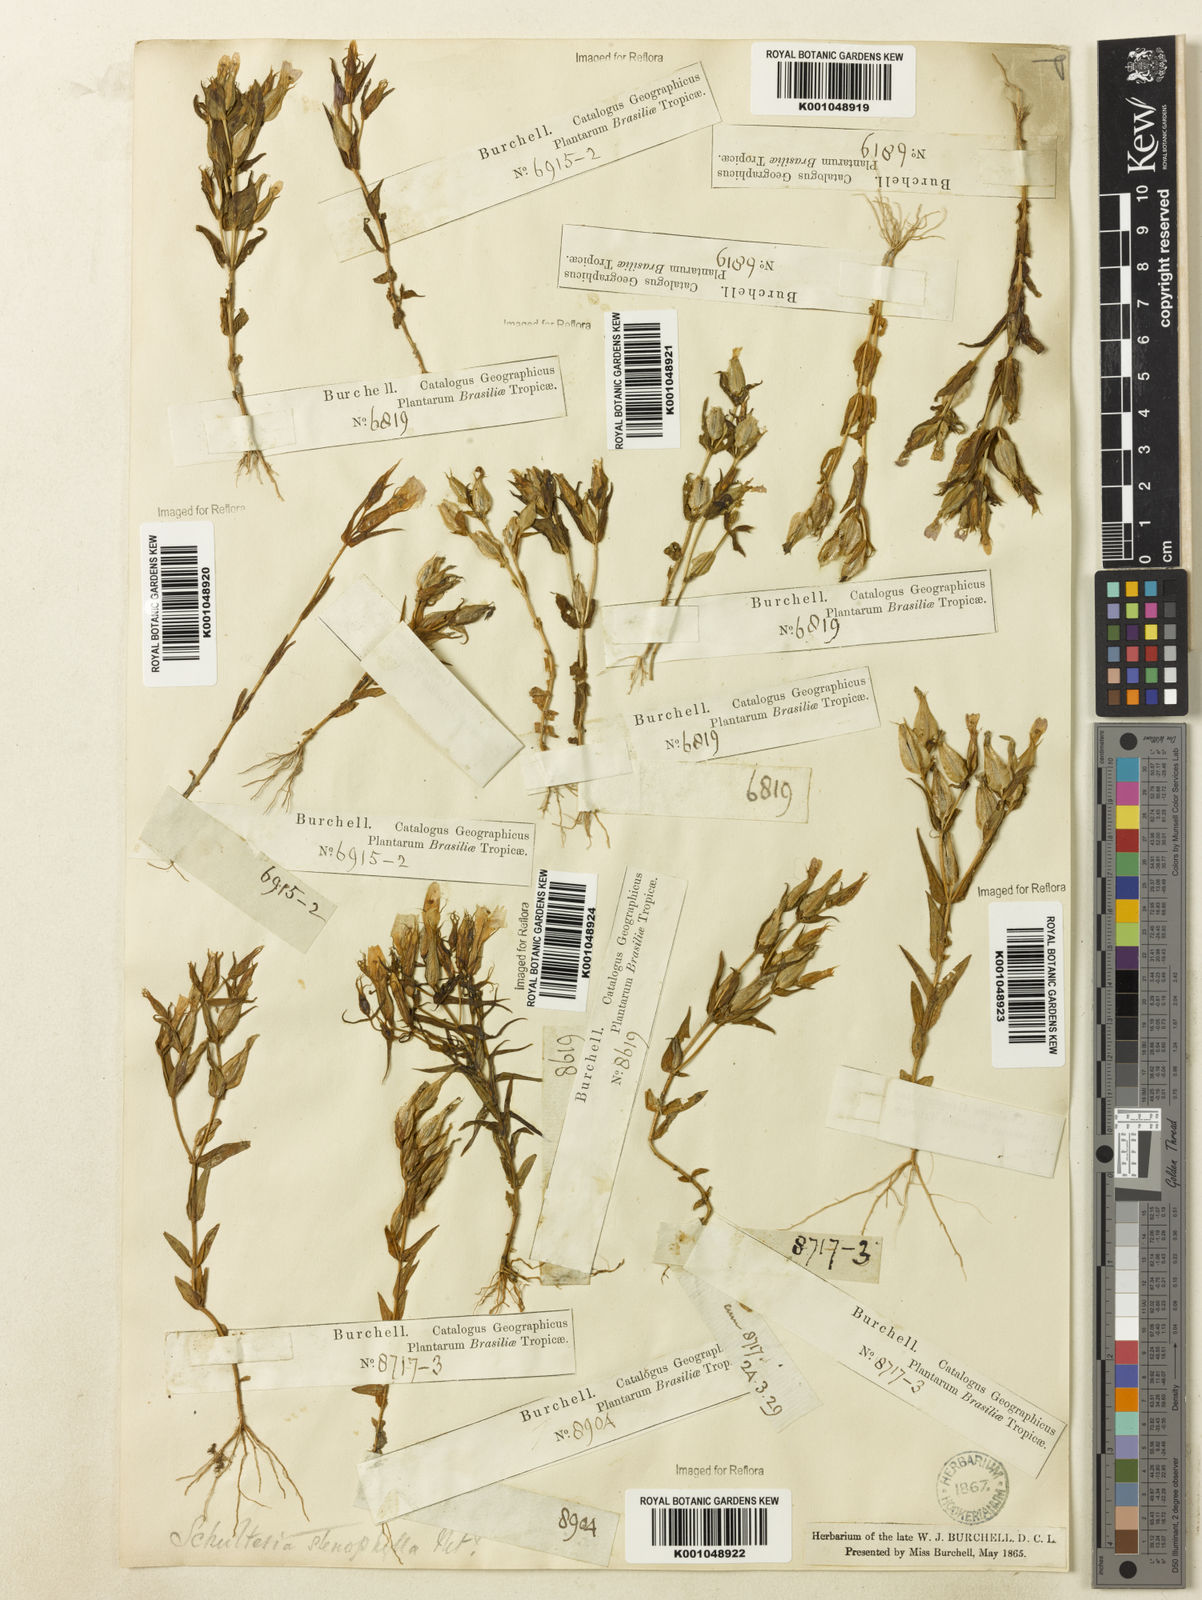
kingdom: Plantae
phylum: Tracheophyta
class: Magnoliopsida
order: Gentianales
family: Gentianaceae
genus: Schultesia
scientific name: Schultesia
